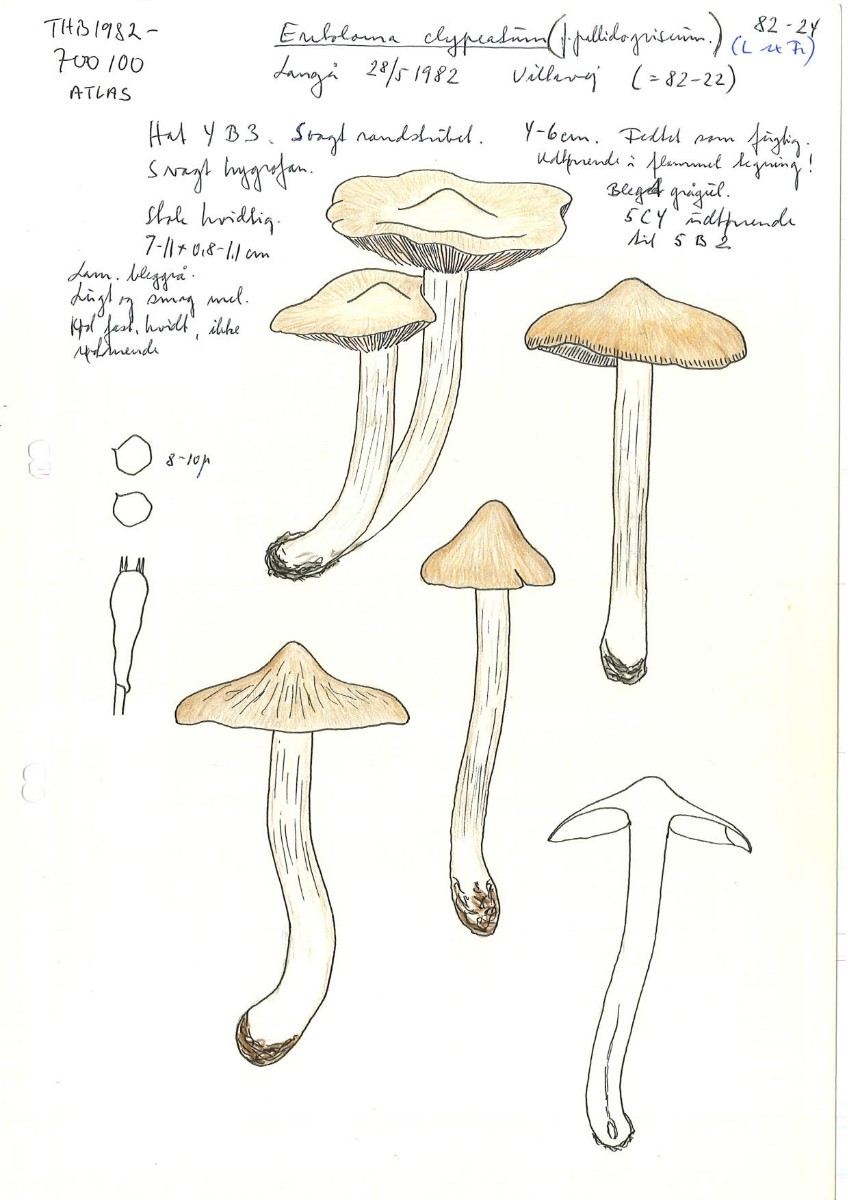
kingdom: Fungi
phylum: Basidiomycota
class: Agaricomycetes
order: Agaricales
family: Entolomataceae
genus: Entoloma
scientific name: Entoloma clypeatum
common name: flammet rødblad
